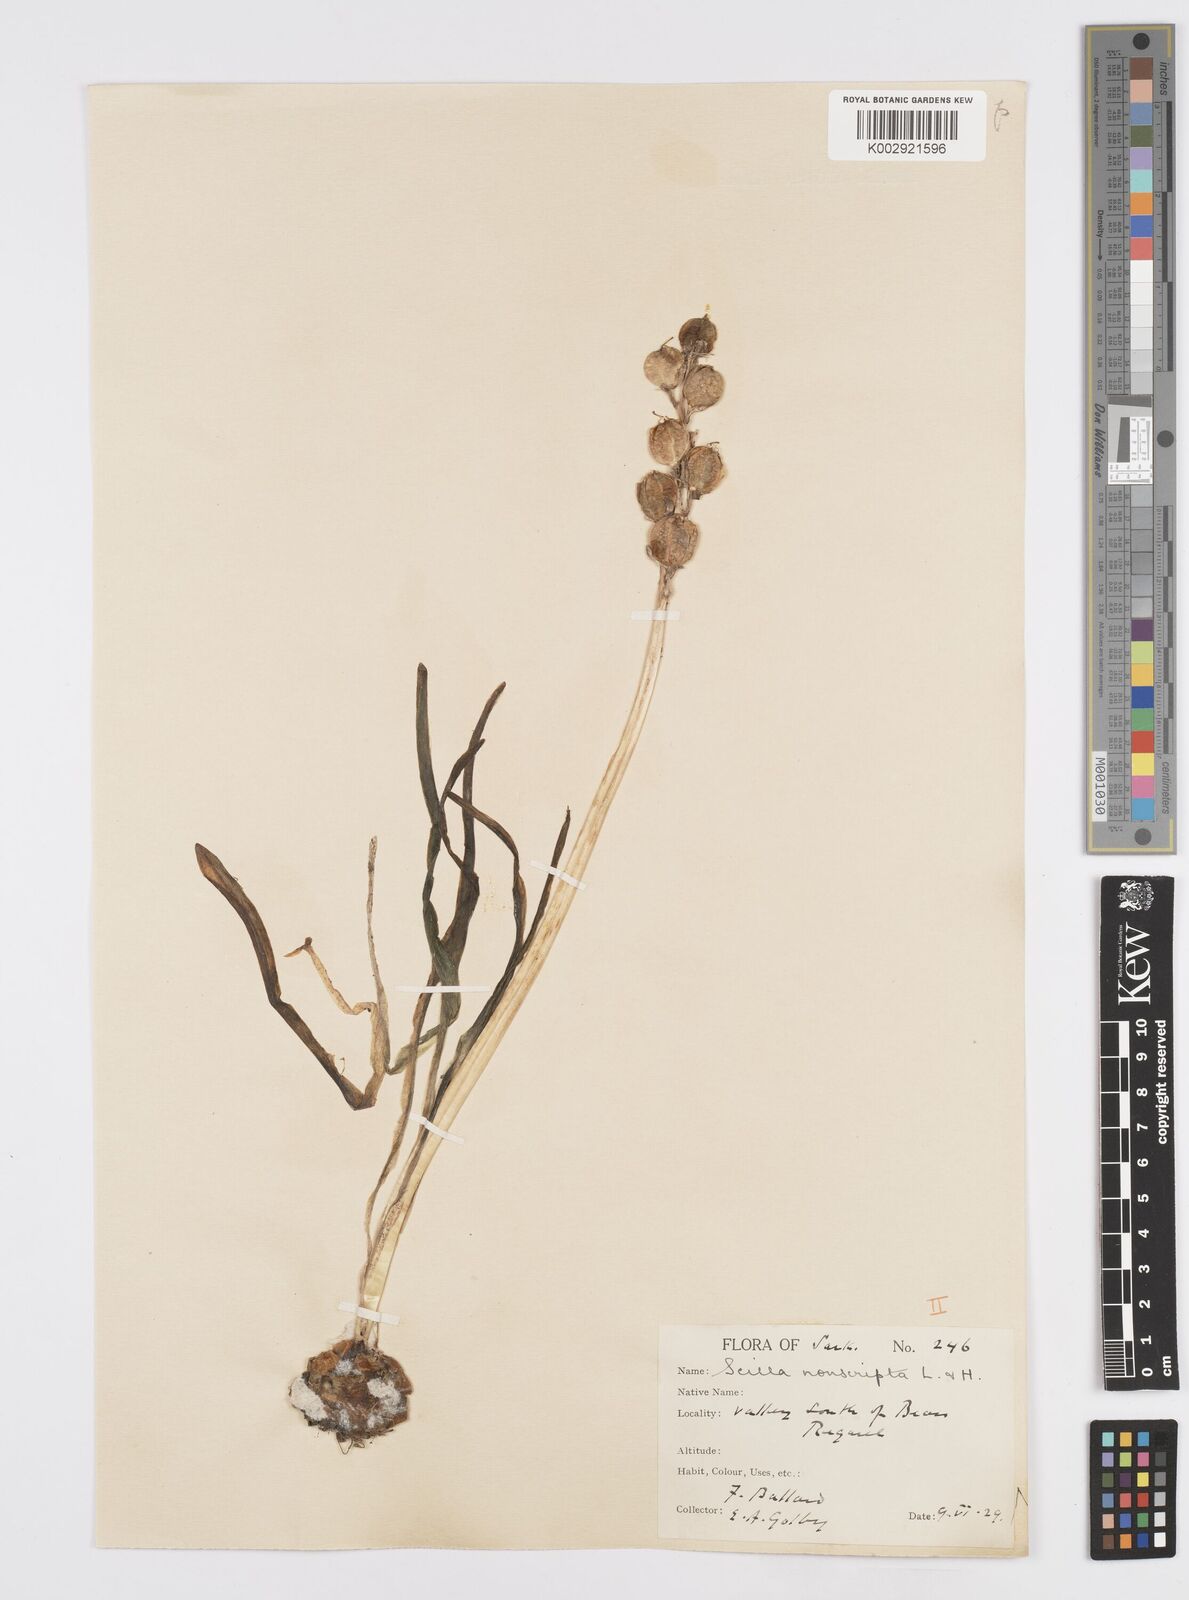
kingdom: Plantae
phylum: Tracheophyta
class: Liliopsida
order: Asparagales
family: Asparagaceae
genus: Hyacinthoides
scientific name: Hyacinthoides non-scripta
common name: Bluebell
